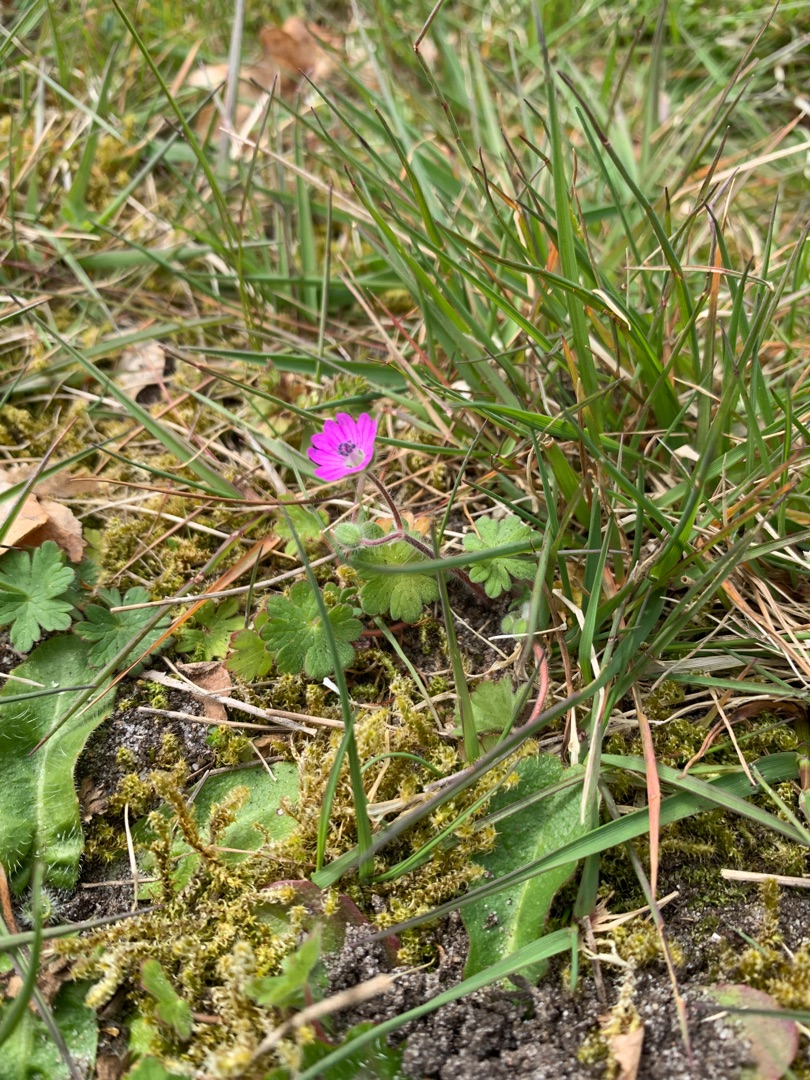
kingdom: Plantae
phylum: Tracheophyta
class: Magnoliopsida
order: Geraniales
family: Geraniaceae
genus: Geranium
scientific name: Geranium molle
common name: Blød storkenæb
